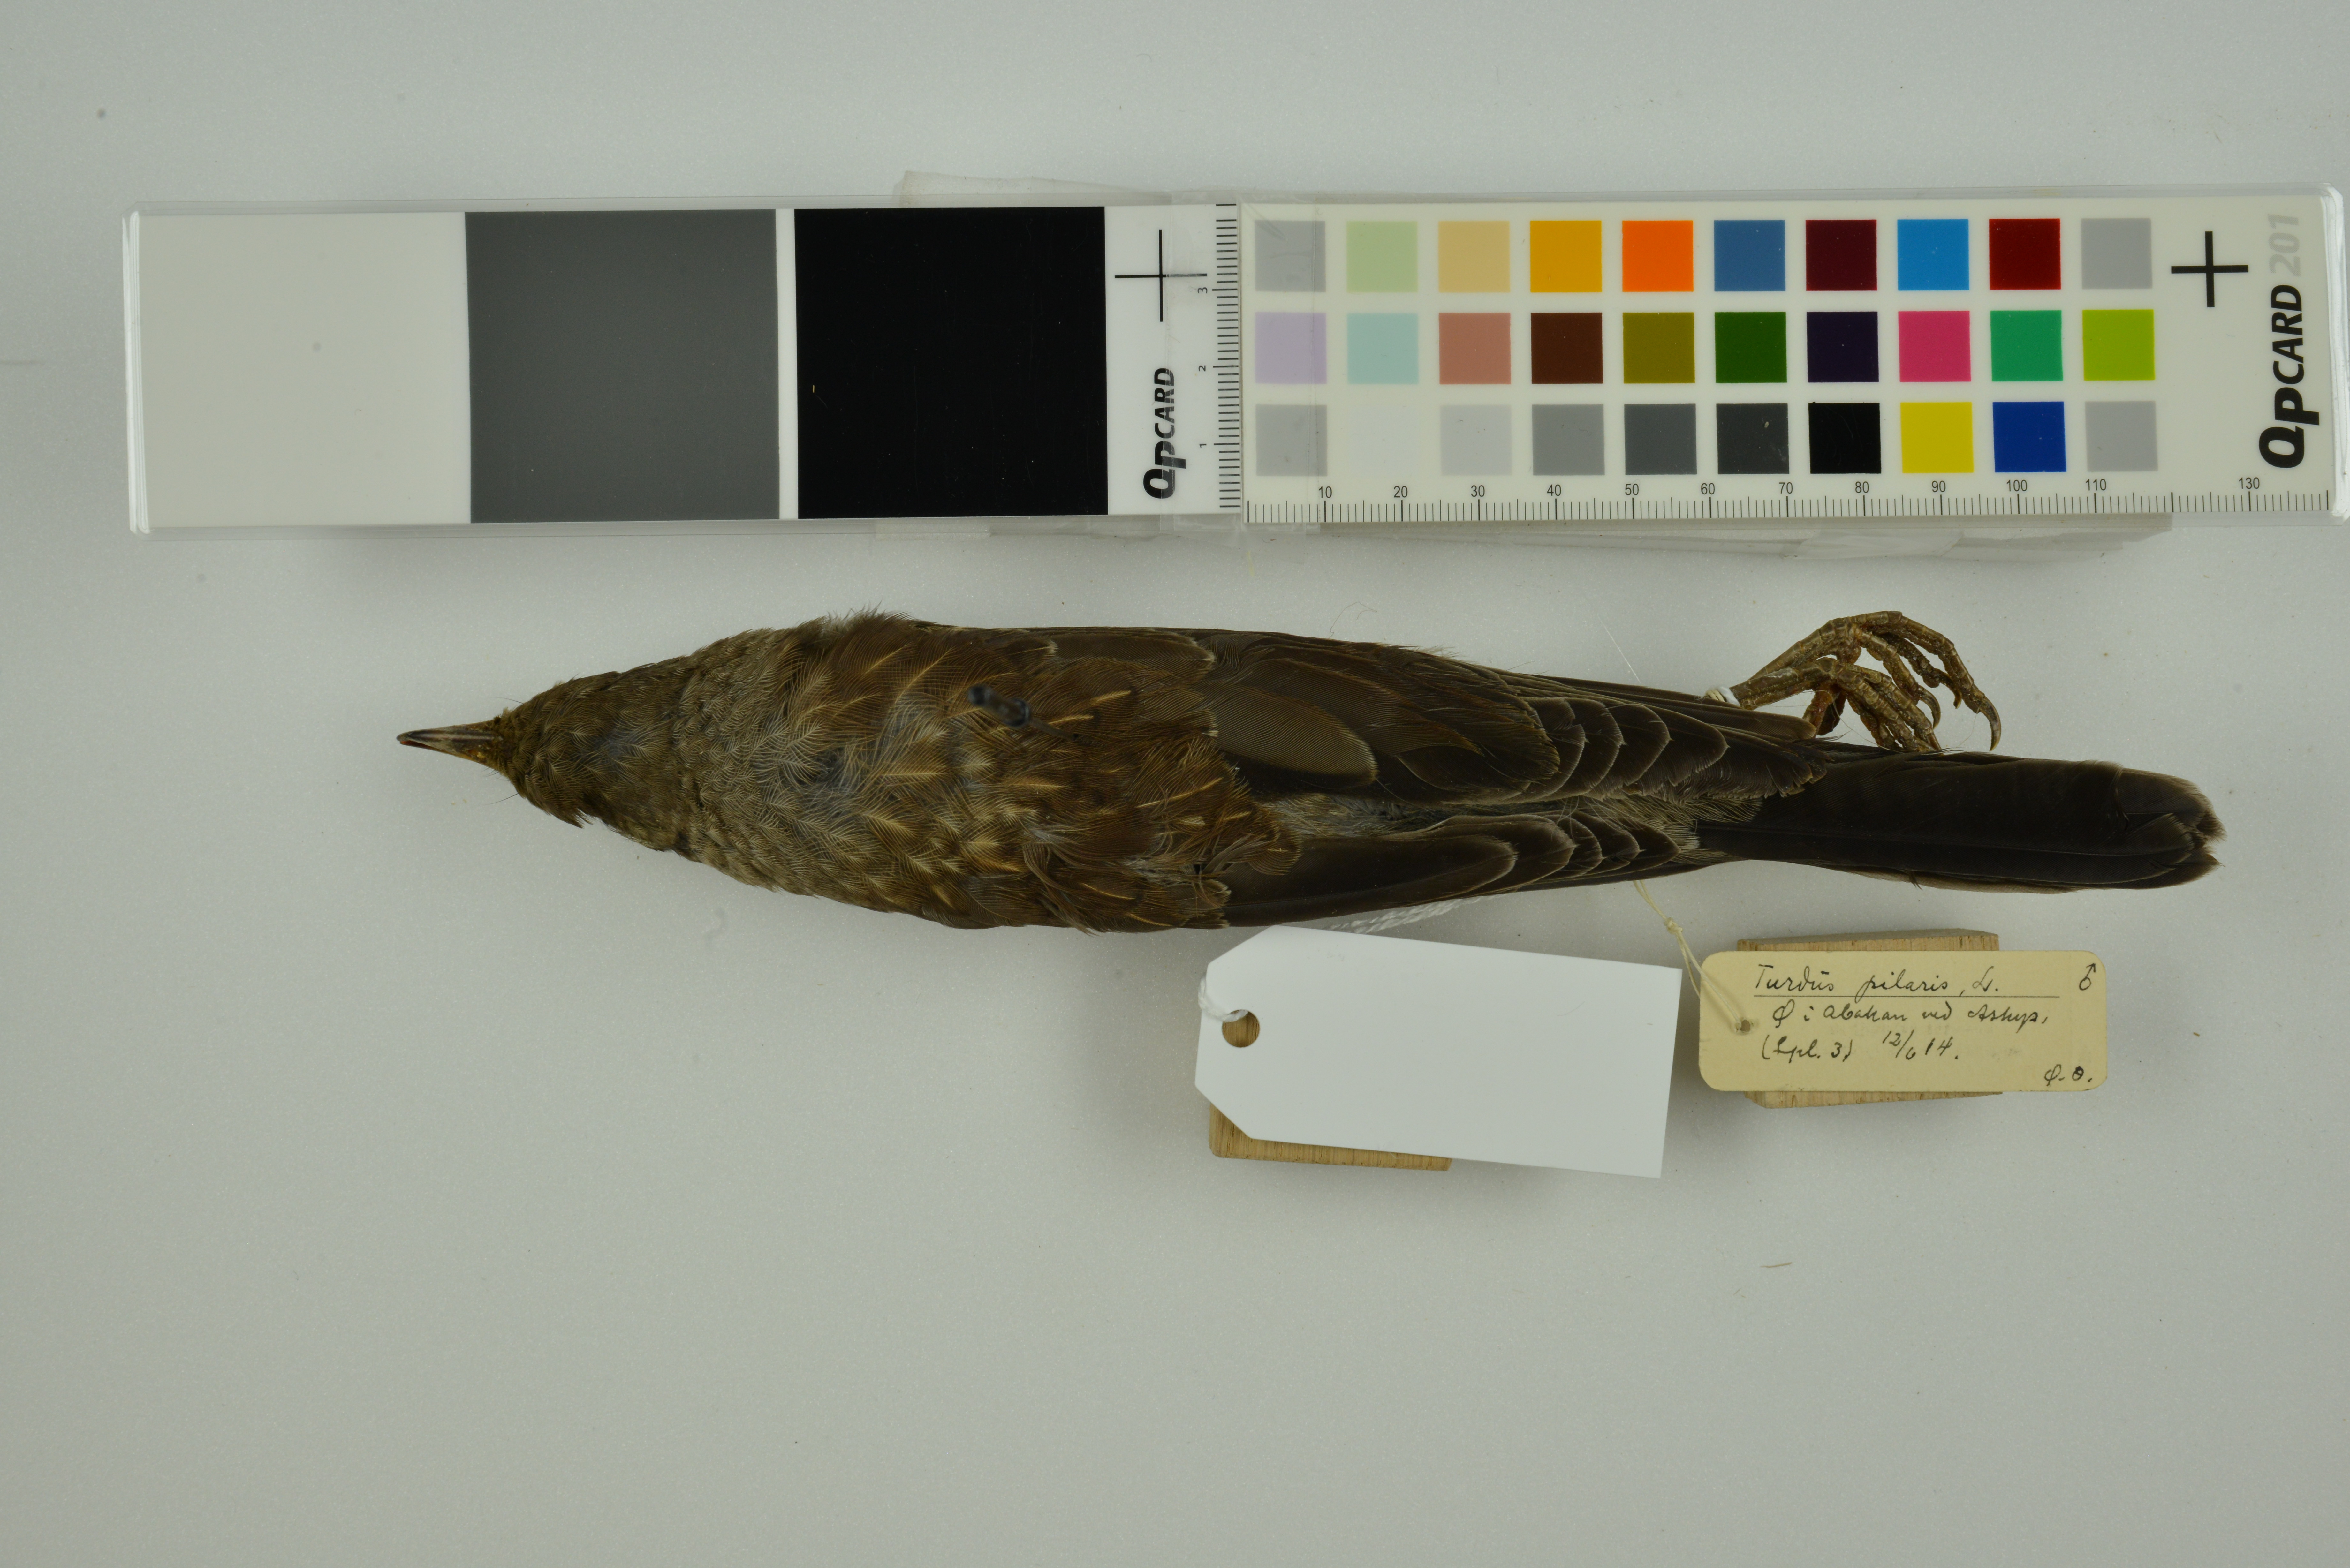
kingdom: Animalia
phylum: Chordata
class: Aves
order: Passeriformes
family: Turdidae
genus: Turdus
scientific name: Turdus pilaris
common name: Fieldfare
